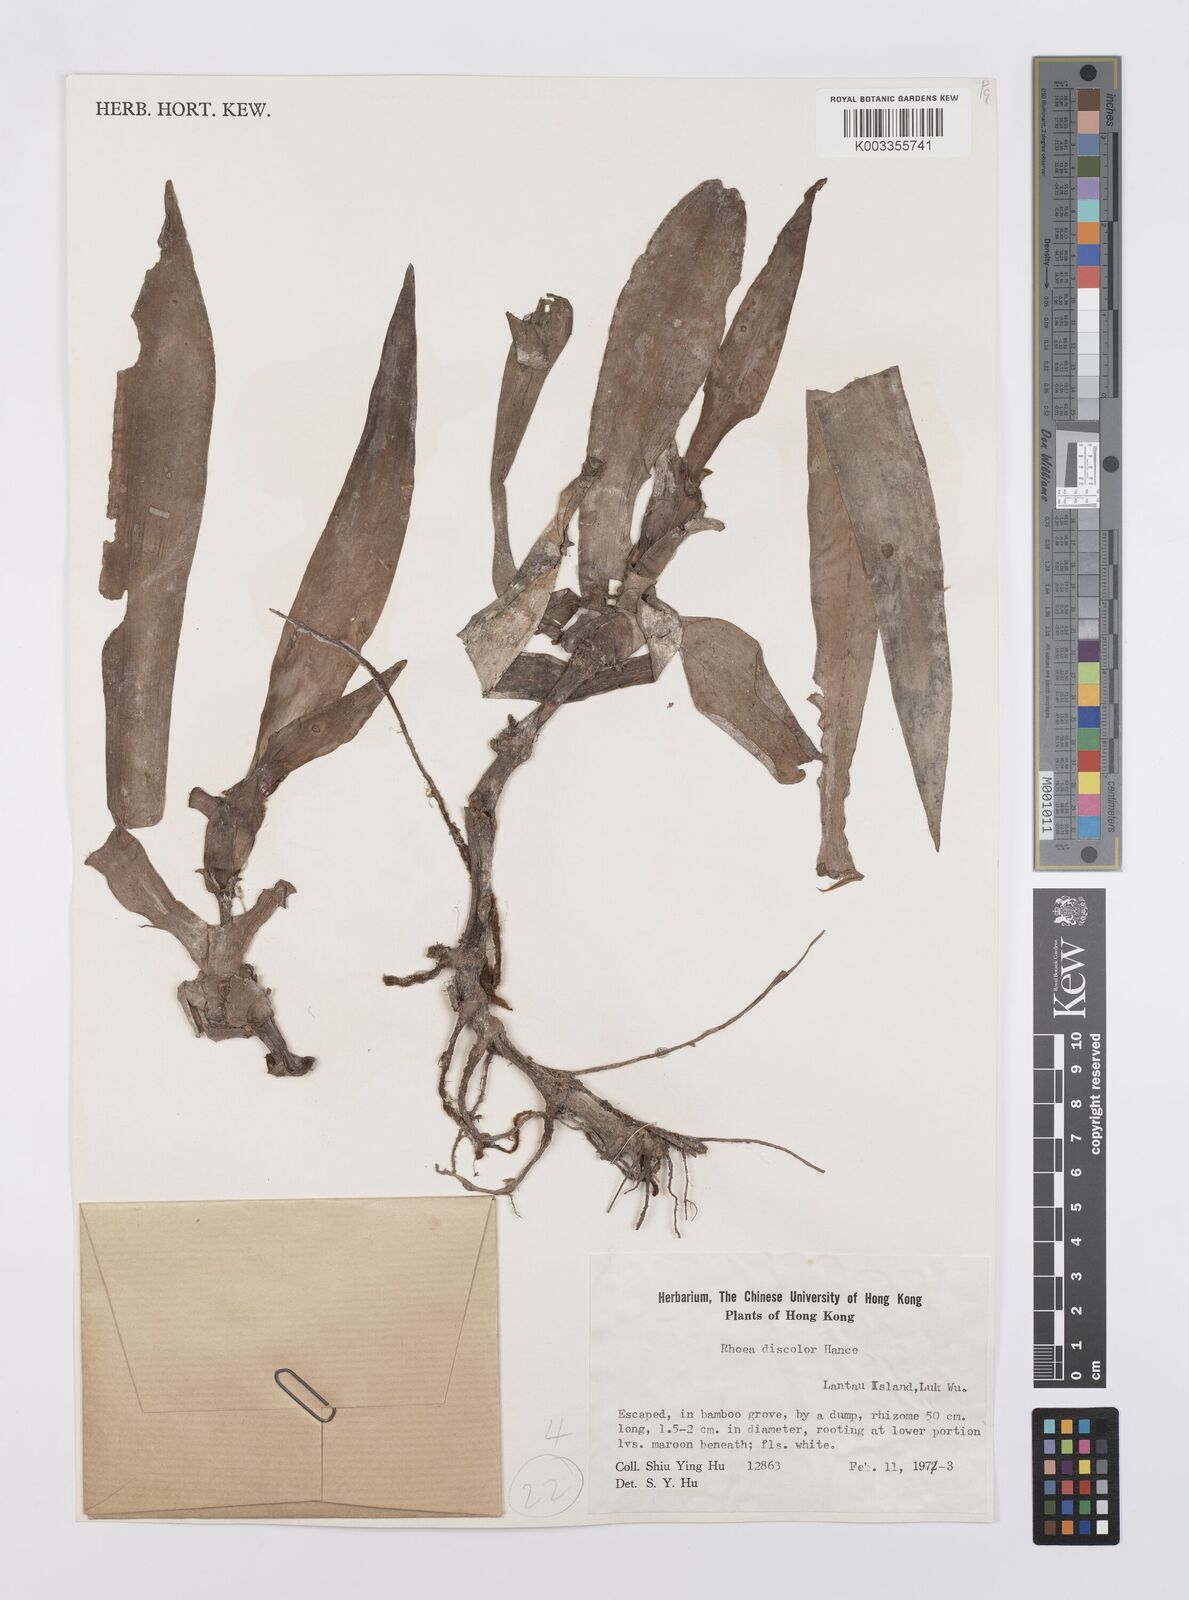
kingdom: Plantae
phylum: Tracheophyta
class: Liliopsida
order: Commelinales
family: Commelinaceae
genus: Tradescantia
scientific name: Tradescantia spathacea
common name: Boatlily
